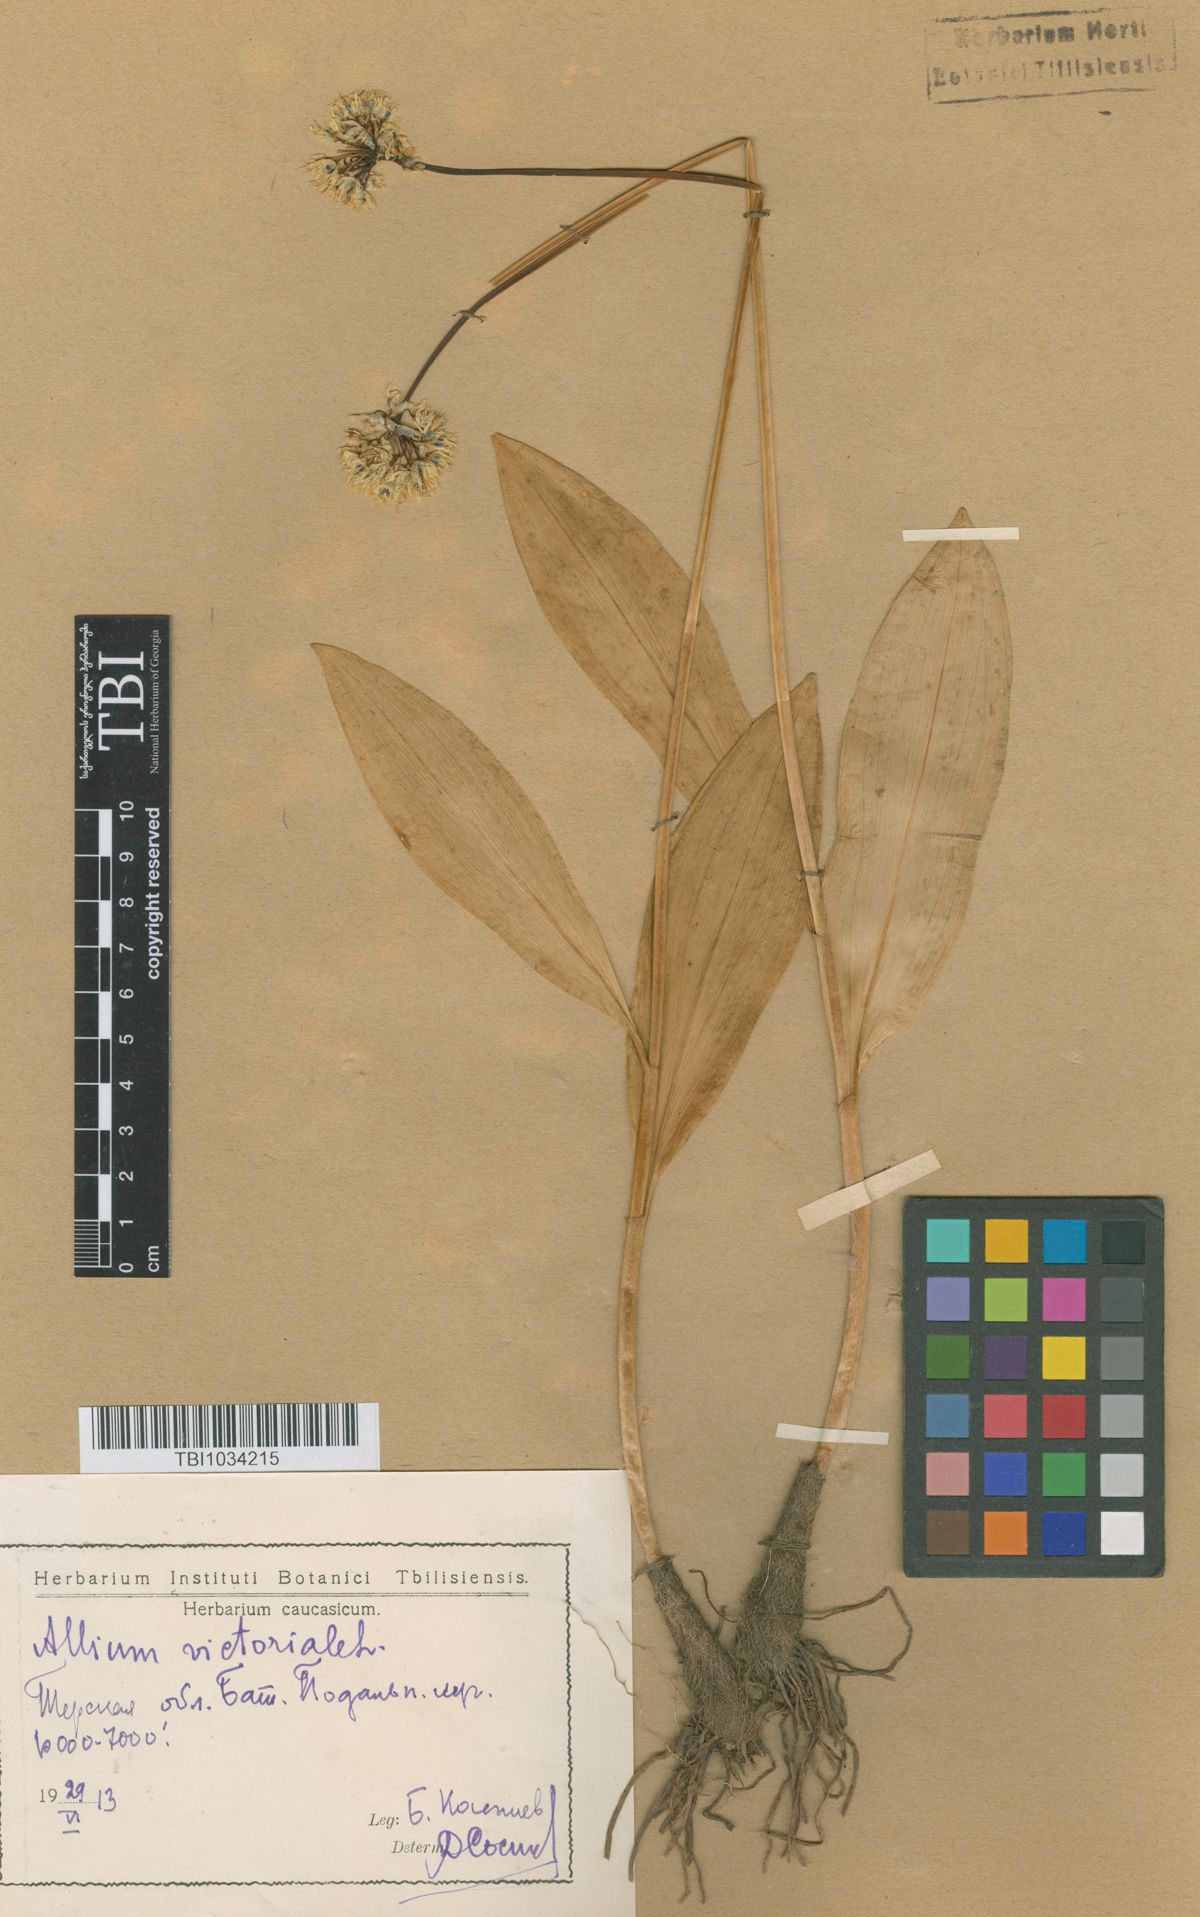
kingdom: Plantae
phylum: Tracheophyta
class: Liliopsida
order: Asparagales
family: Amaryllidaceae
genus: Allium
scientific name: Allium victorialis
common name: Alpine leek
